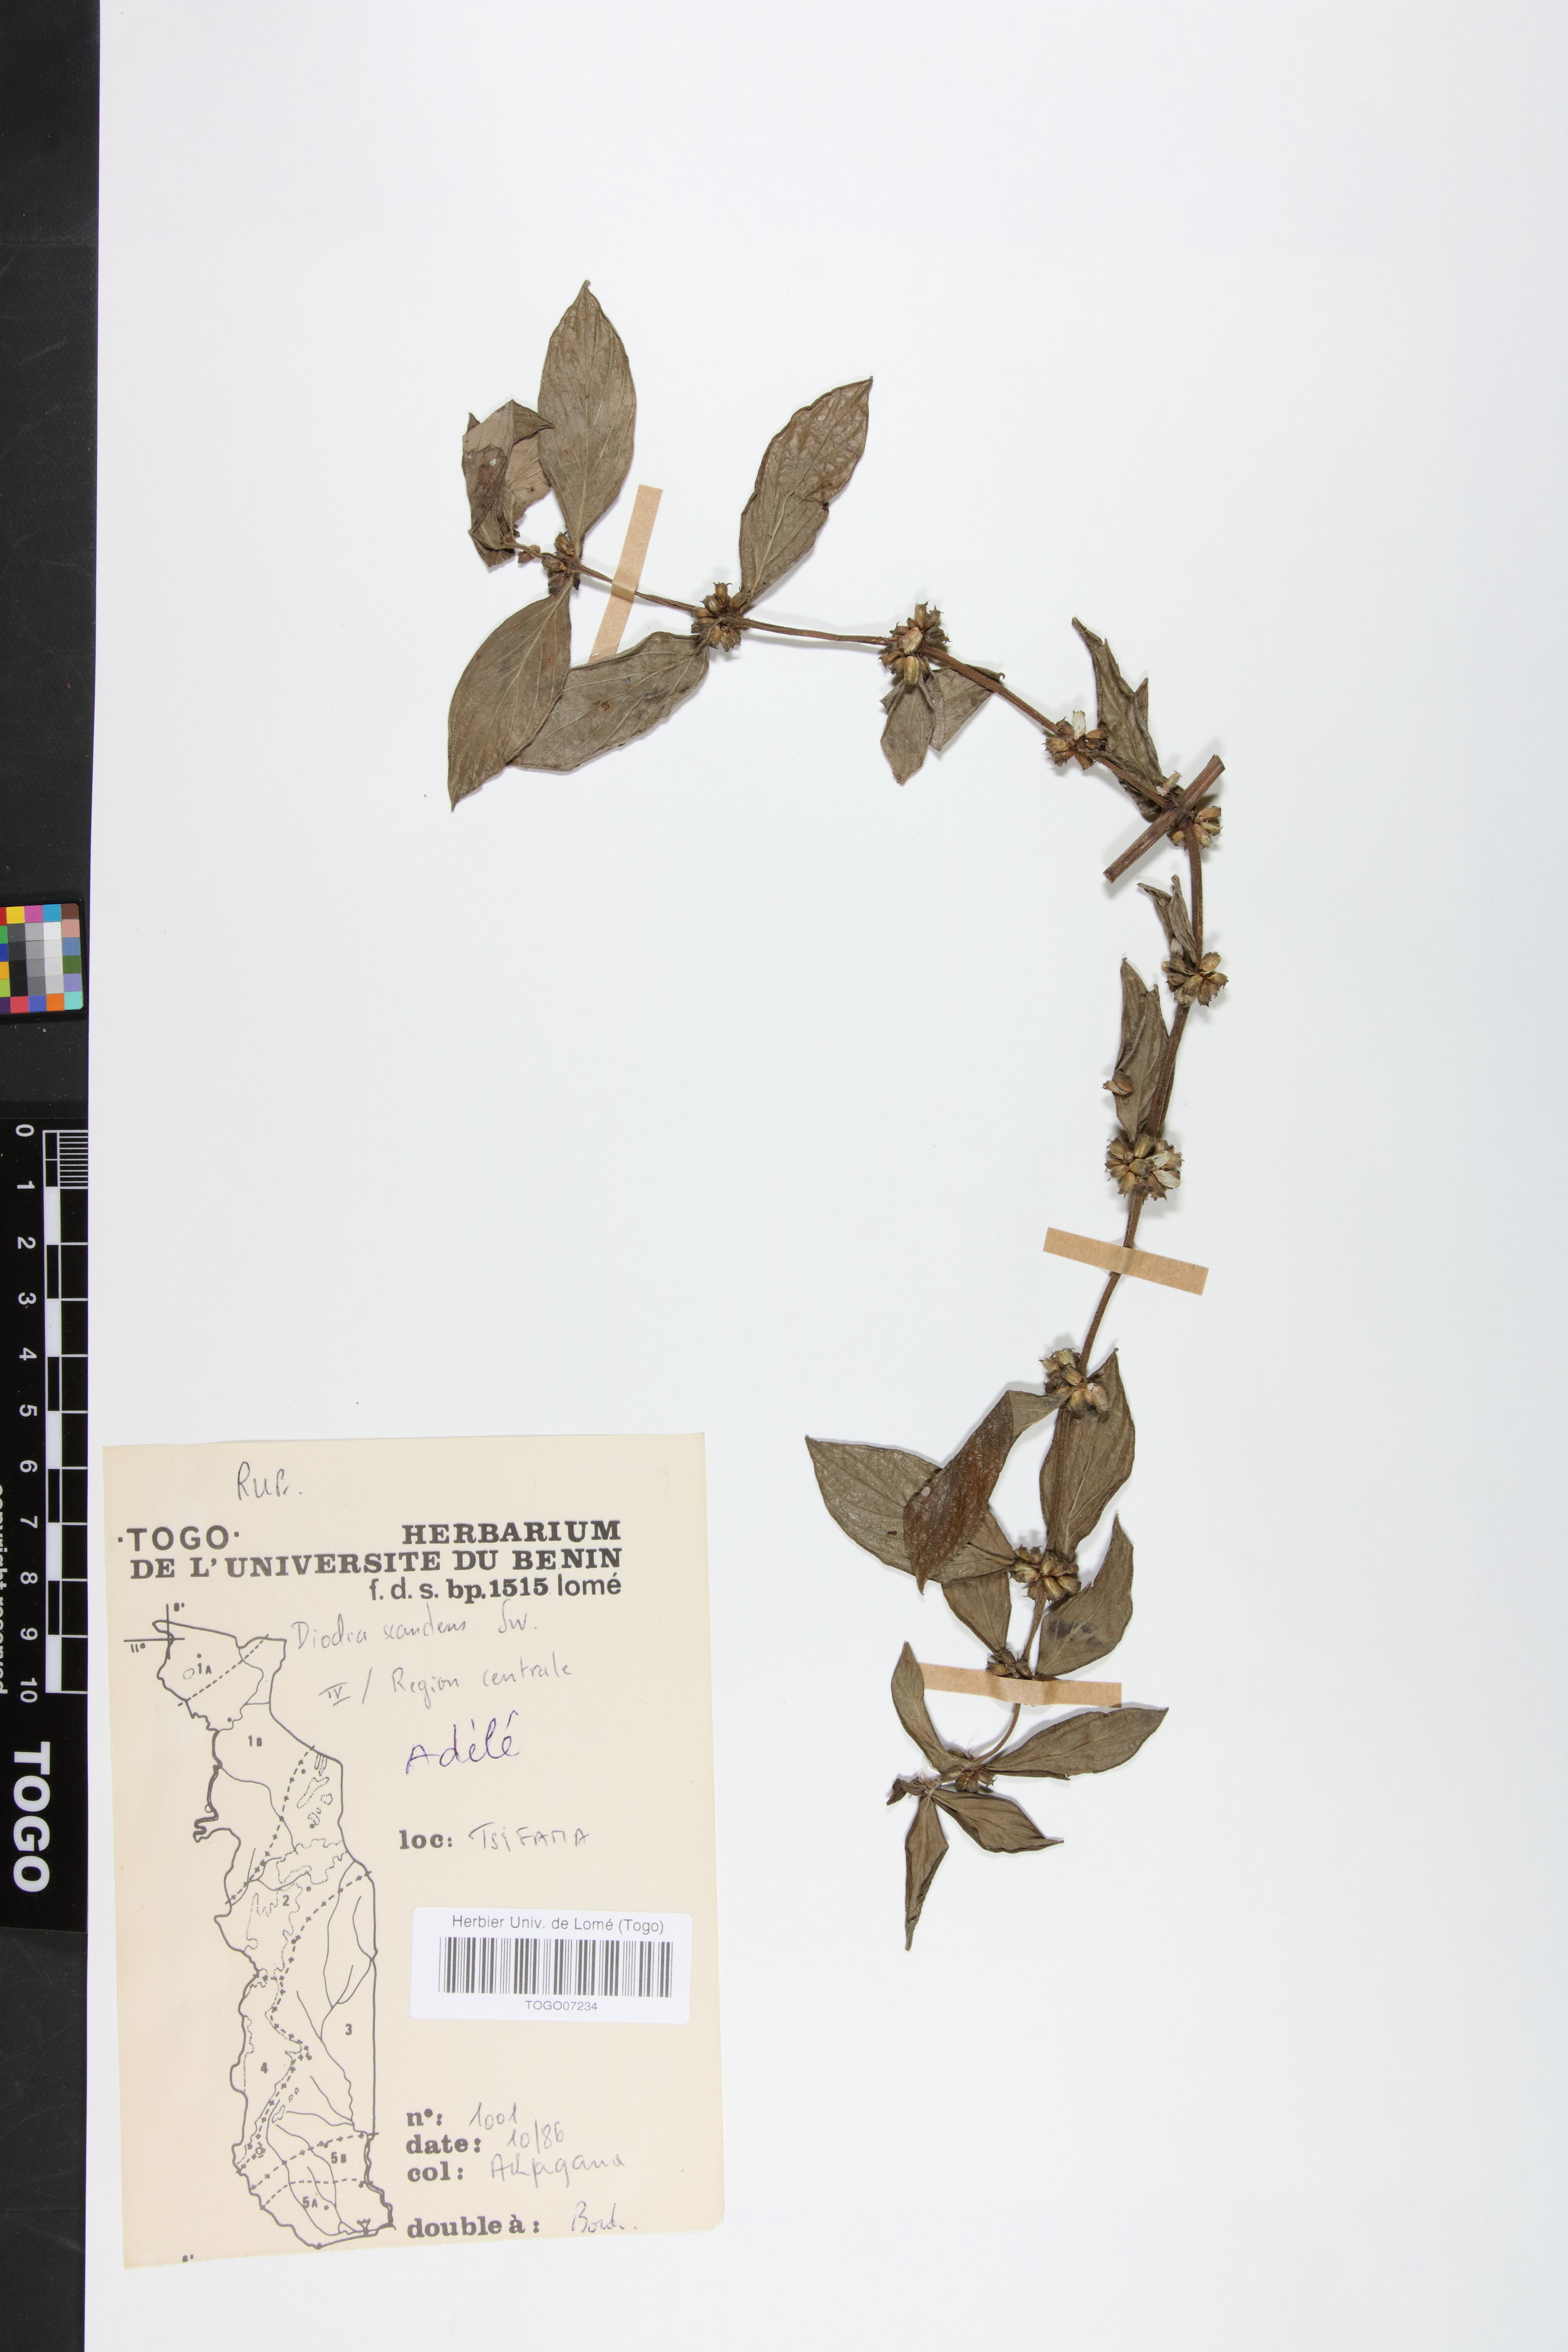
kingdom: Plantae
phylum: Tracheophyta
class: Magnoliopsida
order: Gentianales
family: Rubiaceae
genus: Hexasepalum
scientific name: Hexasepalum scandens
